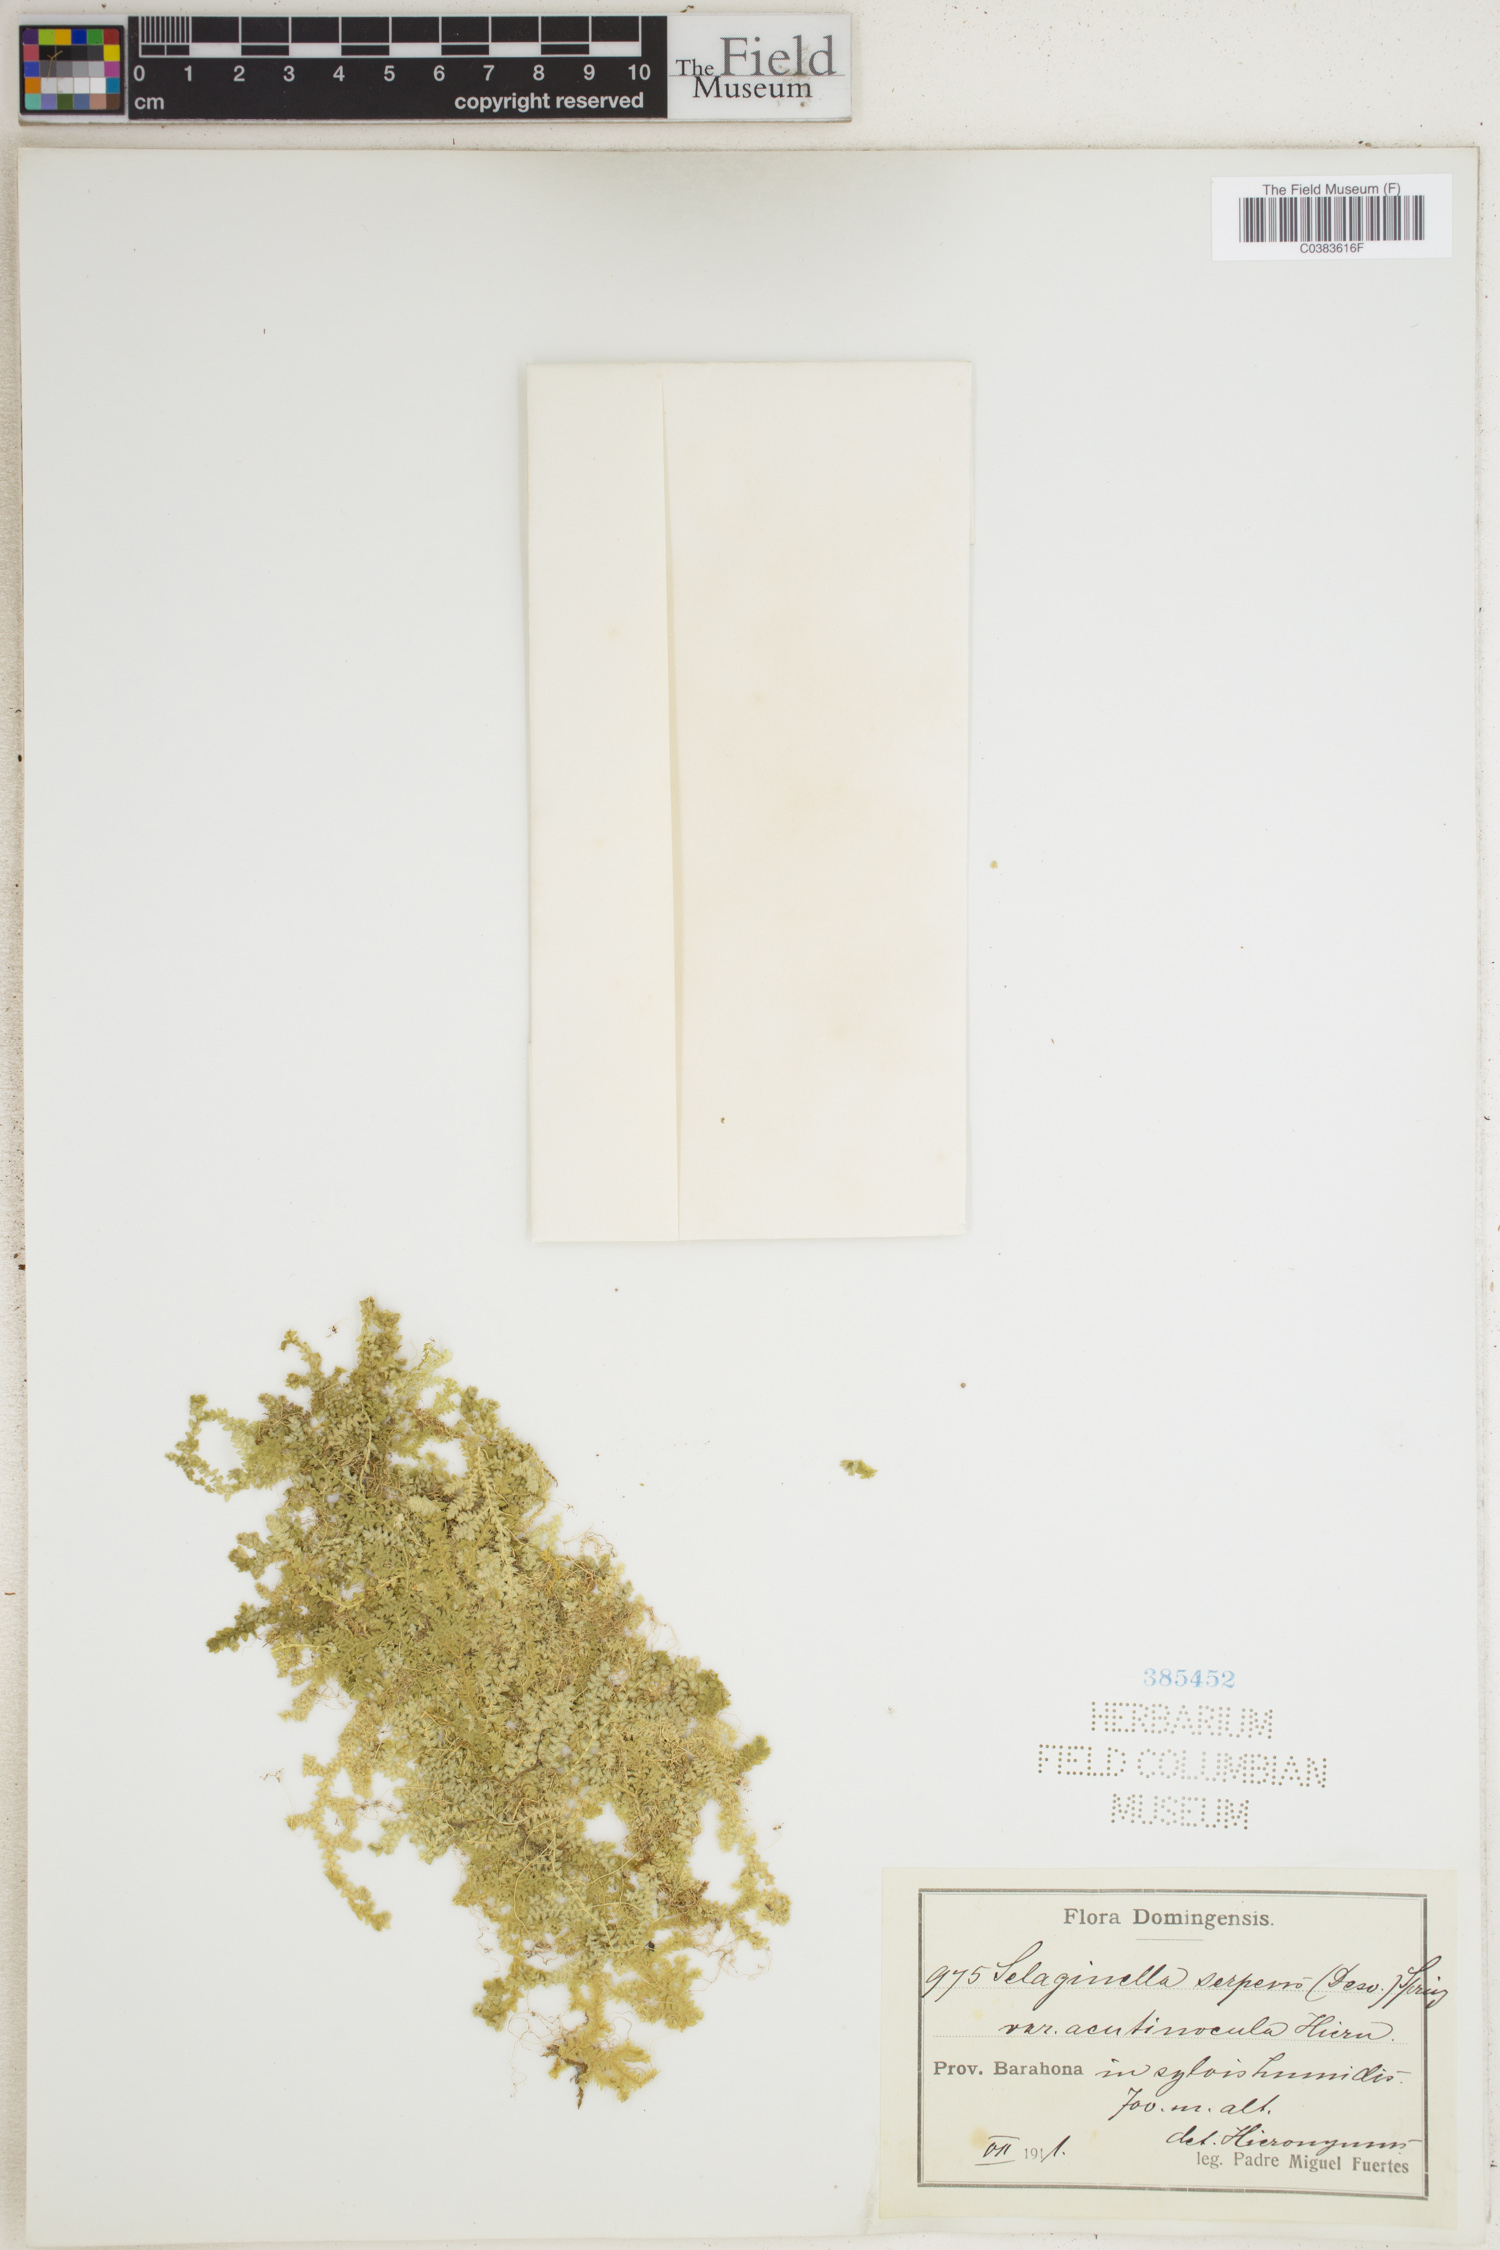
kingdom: Plantae
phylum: Tracheophyta
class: Lycopodiopsida
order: Selaginellales
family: Selaginellaceae
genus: Selaginella
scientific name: Selaginella serpens
